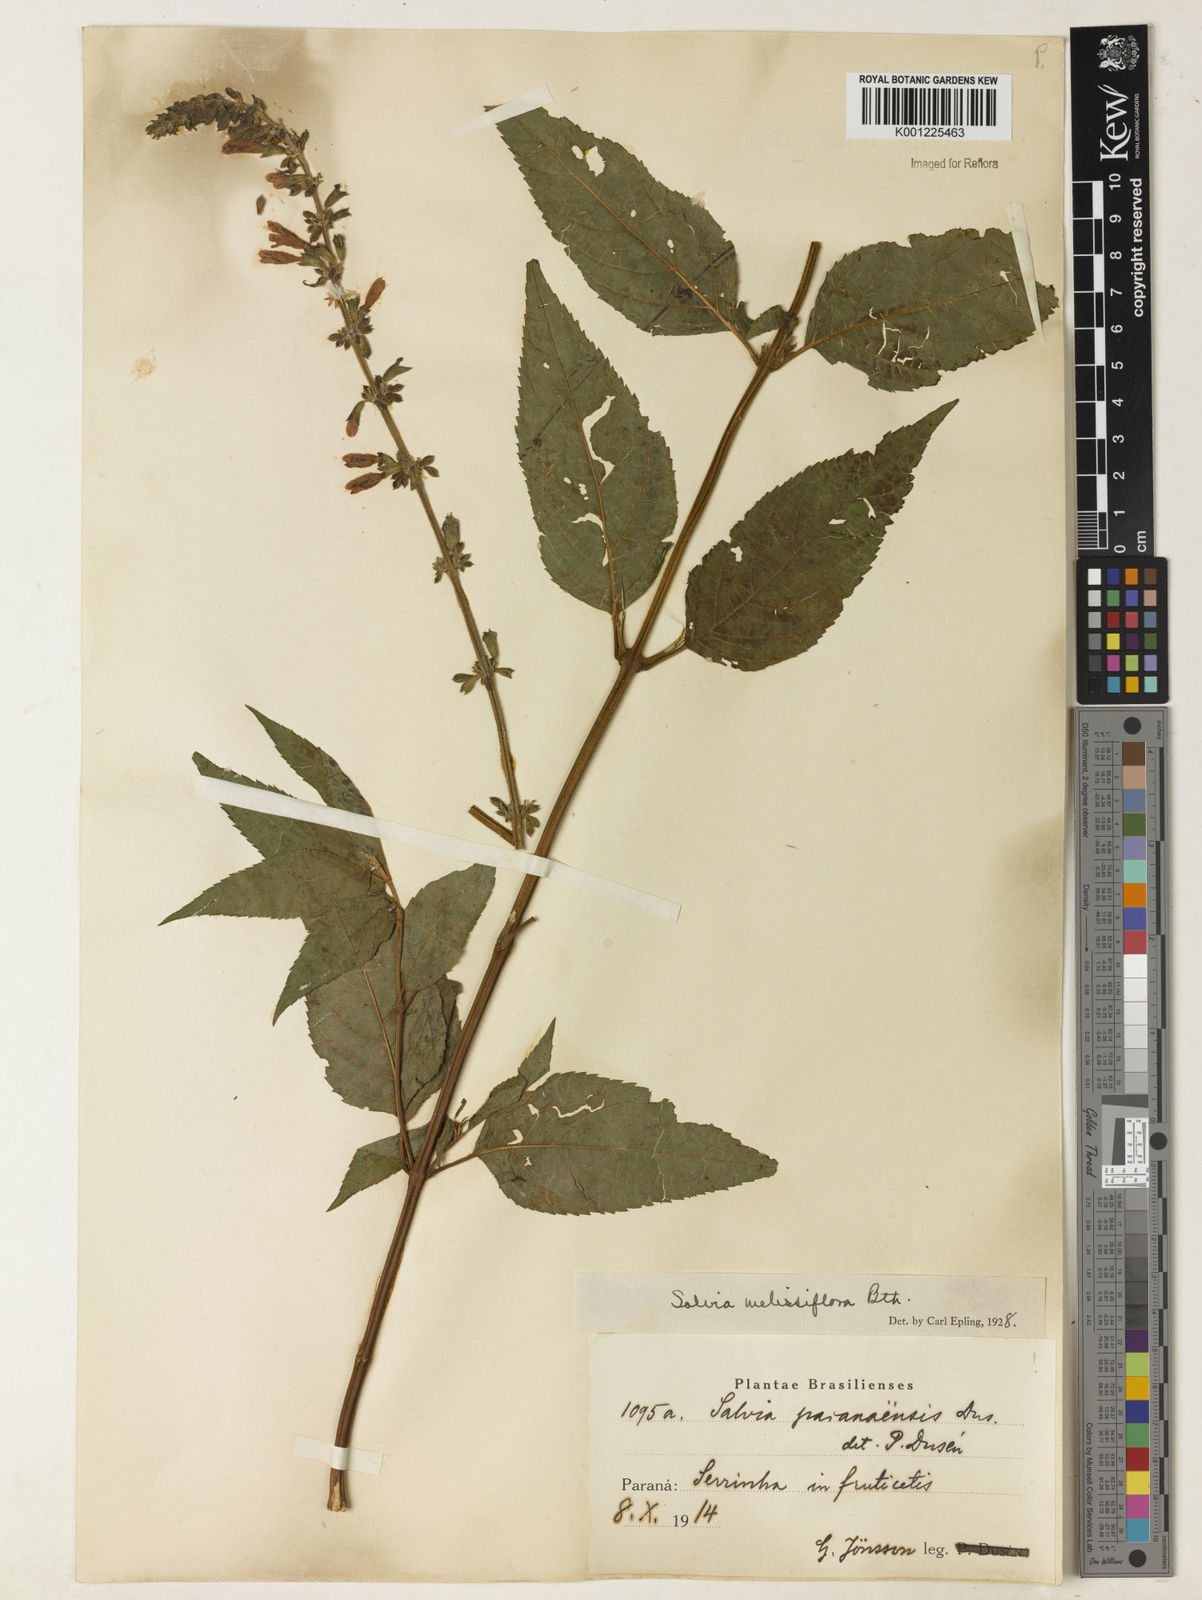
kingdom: Plantae
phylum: Tracheophyta
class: Magnoliopsida
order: Lamiales
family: Lamiaceae
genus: Salvia
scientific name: Salvia melissiflora
